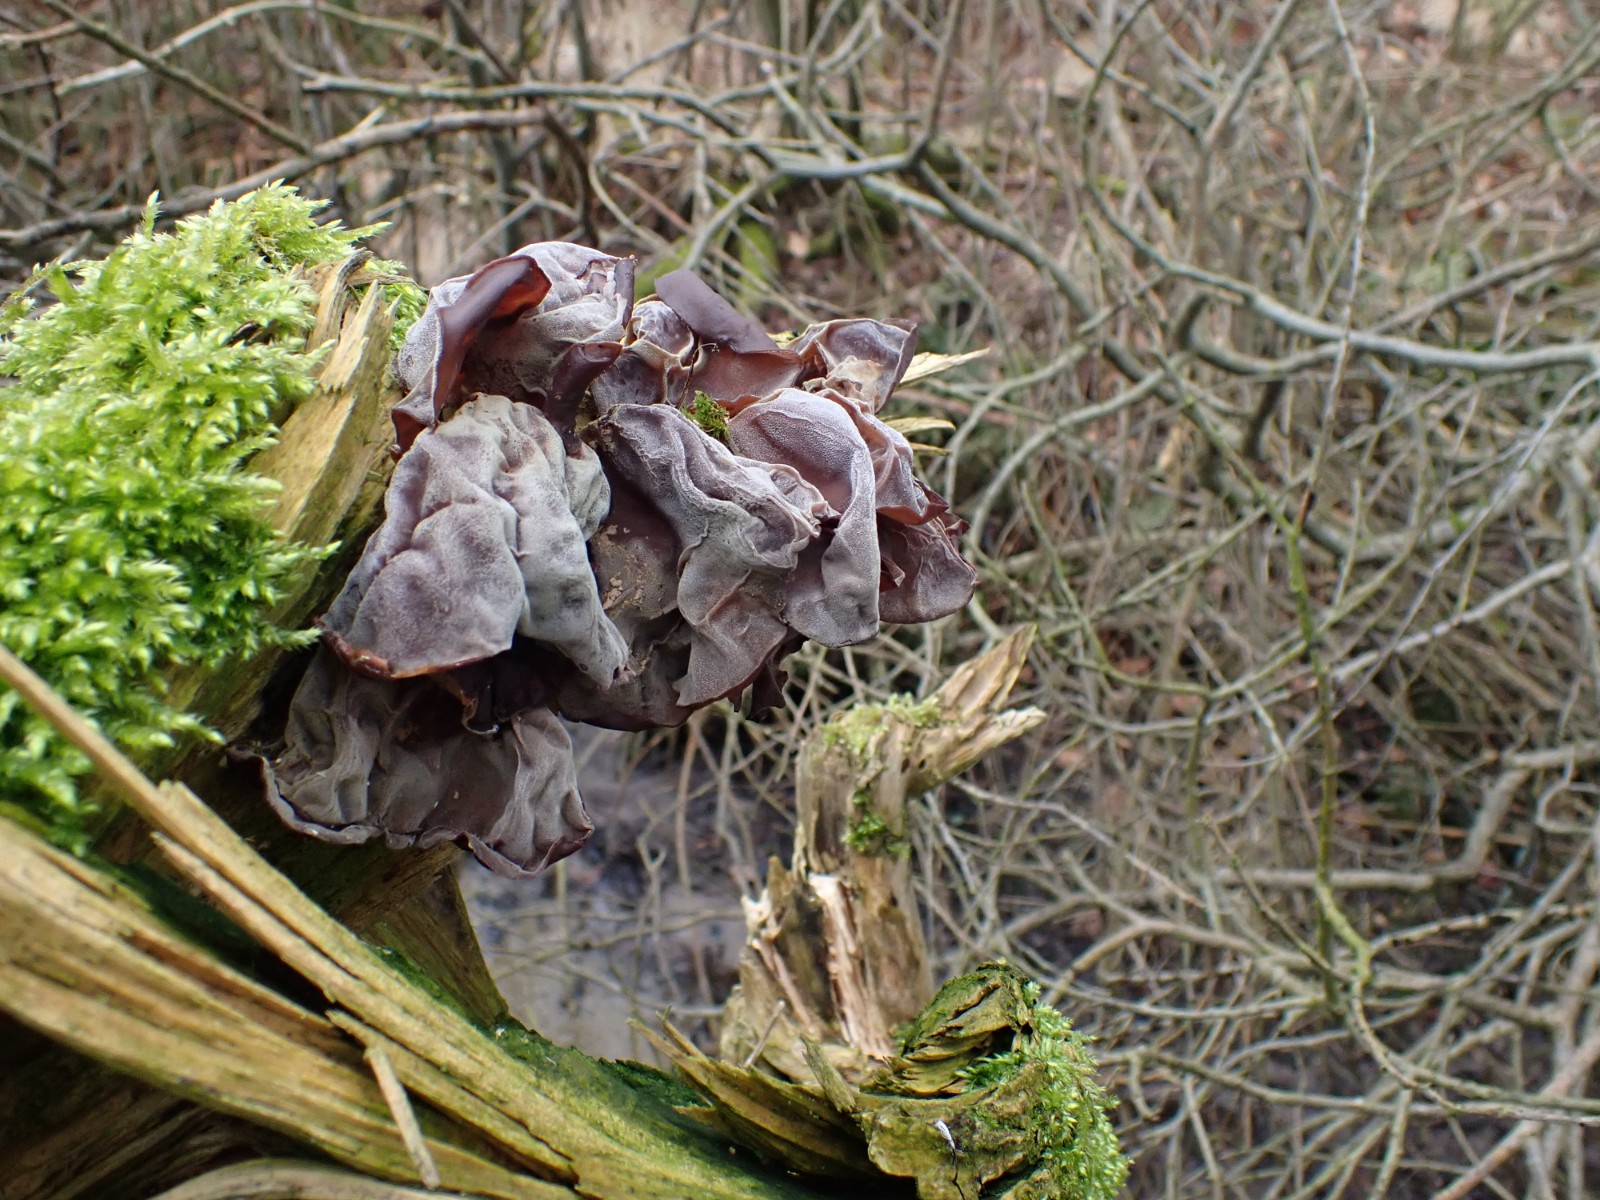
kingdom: Fungi
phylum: Basidiomycota
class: Agaricomycetes
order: Auriculariales
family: Auriculariaceae
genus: Auricularia
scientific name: Auricularia auricula-judae
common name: almindelig judasøre
